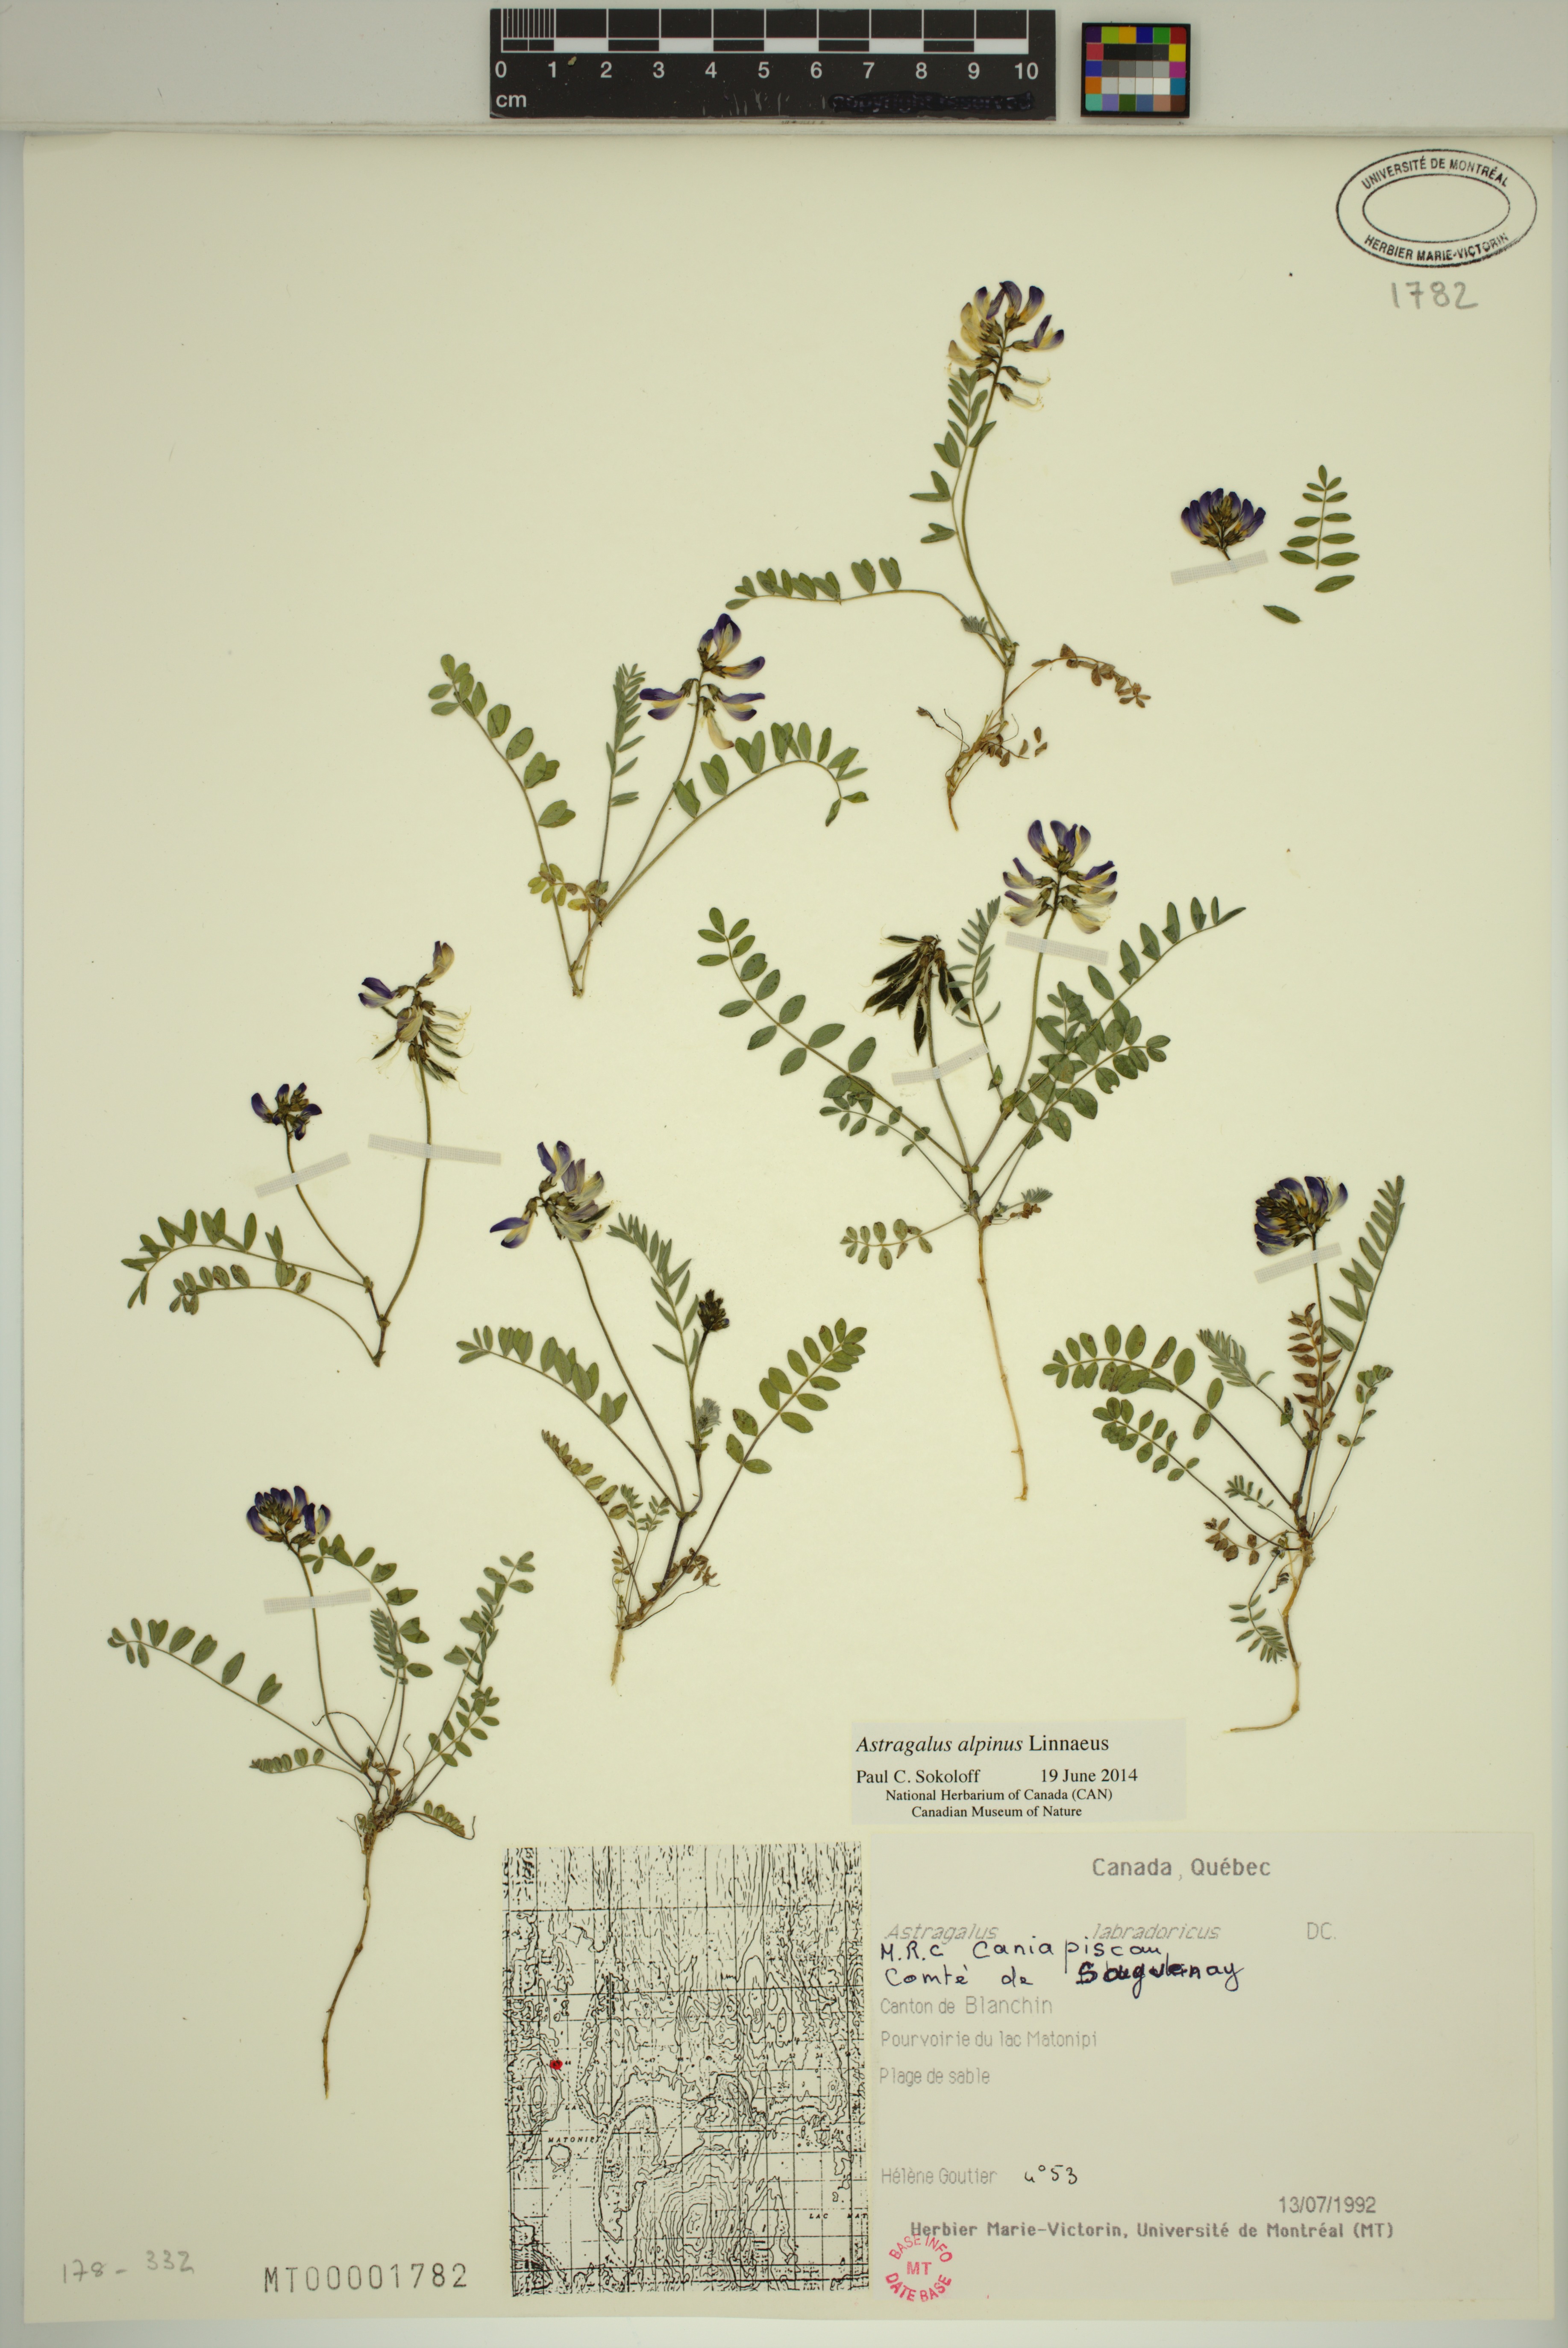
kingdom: Plantae
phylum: Tracheophyta
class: Magnoliopsida
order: Fabales
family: Fabaceae
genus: Astragalus
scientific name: Astragalus alpinus
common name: Alpine milk-vetch
